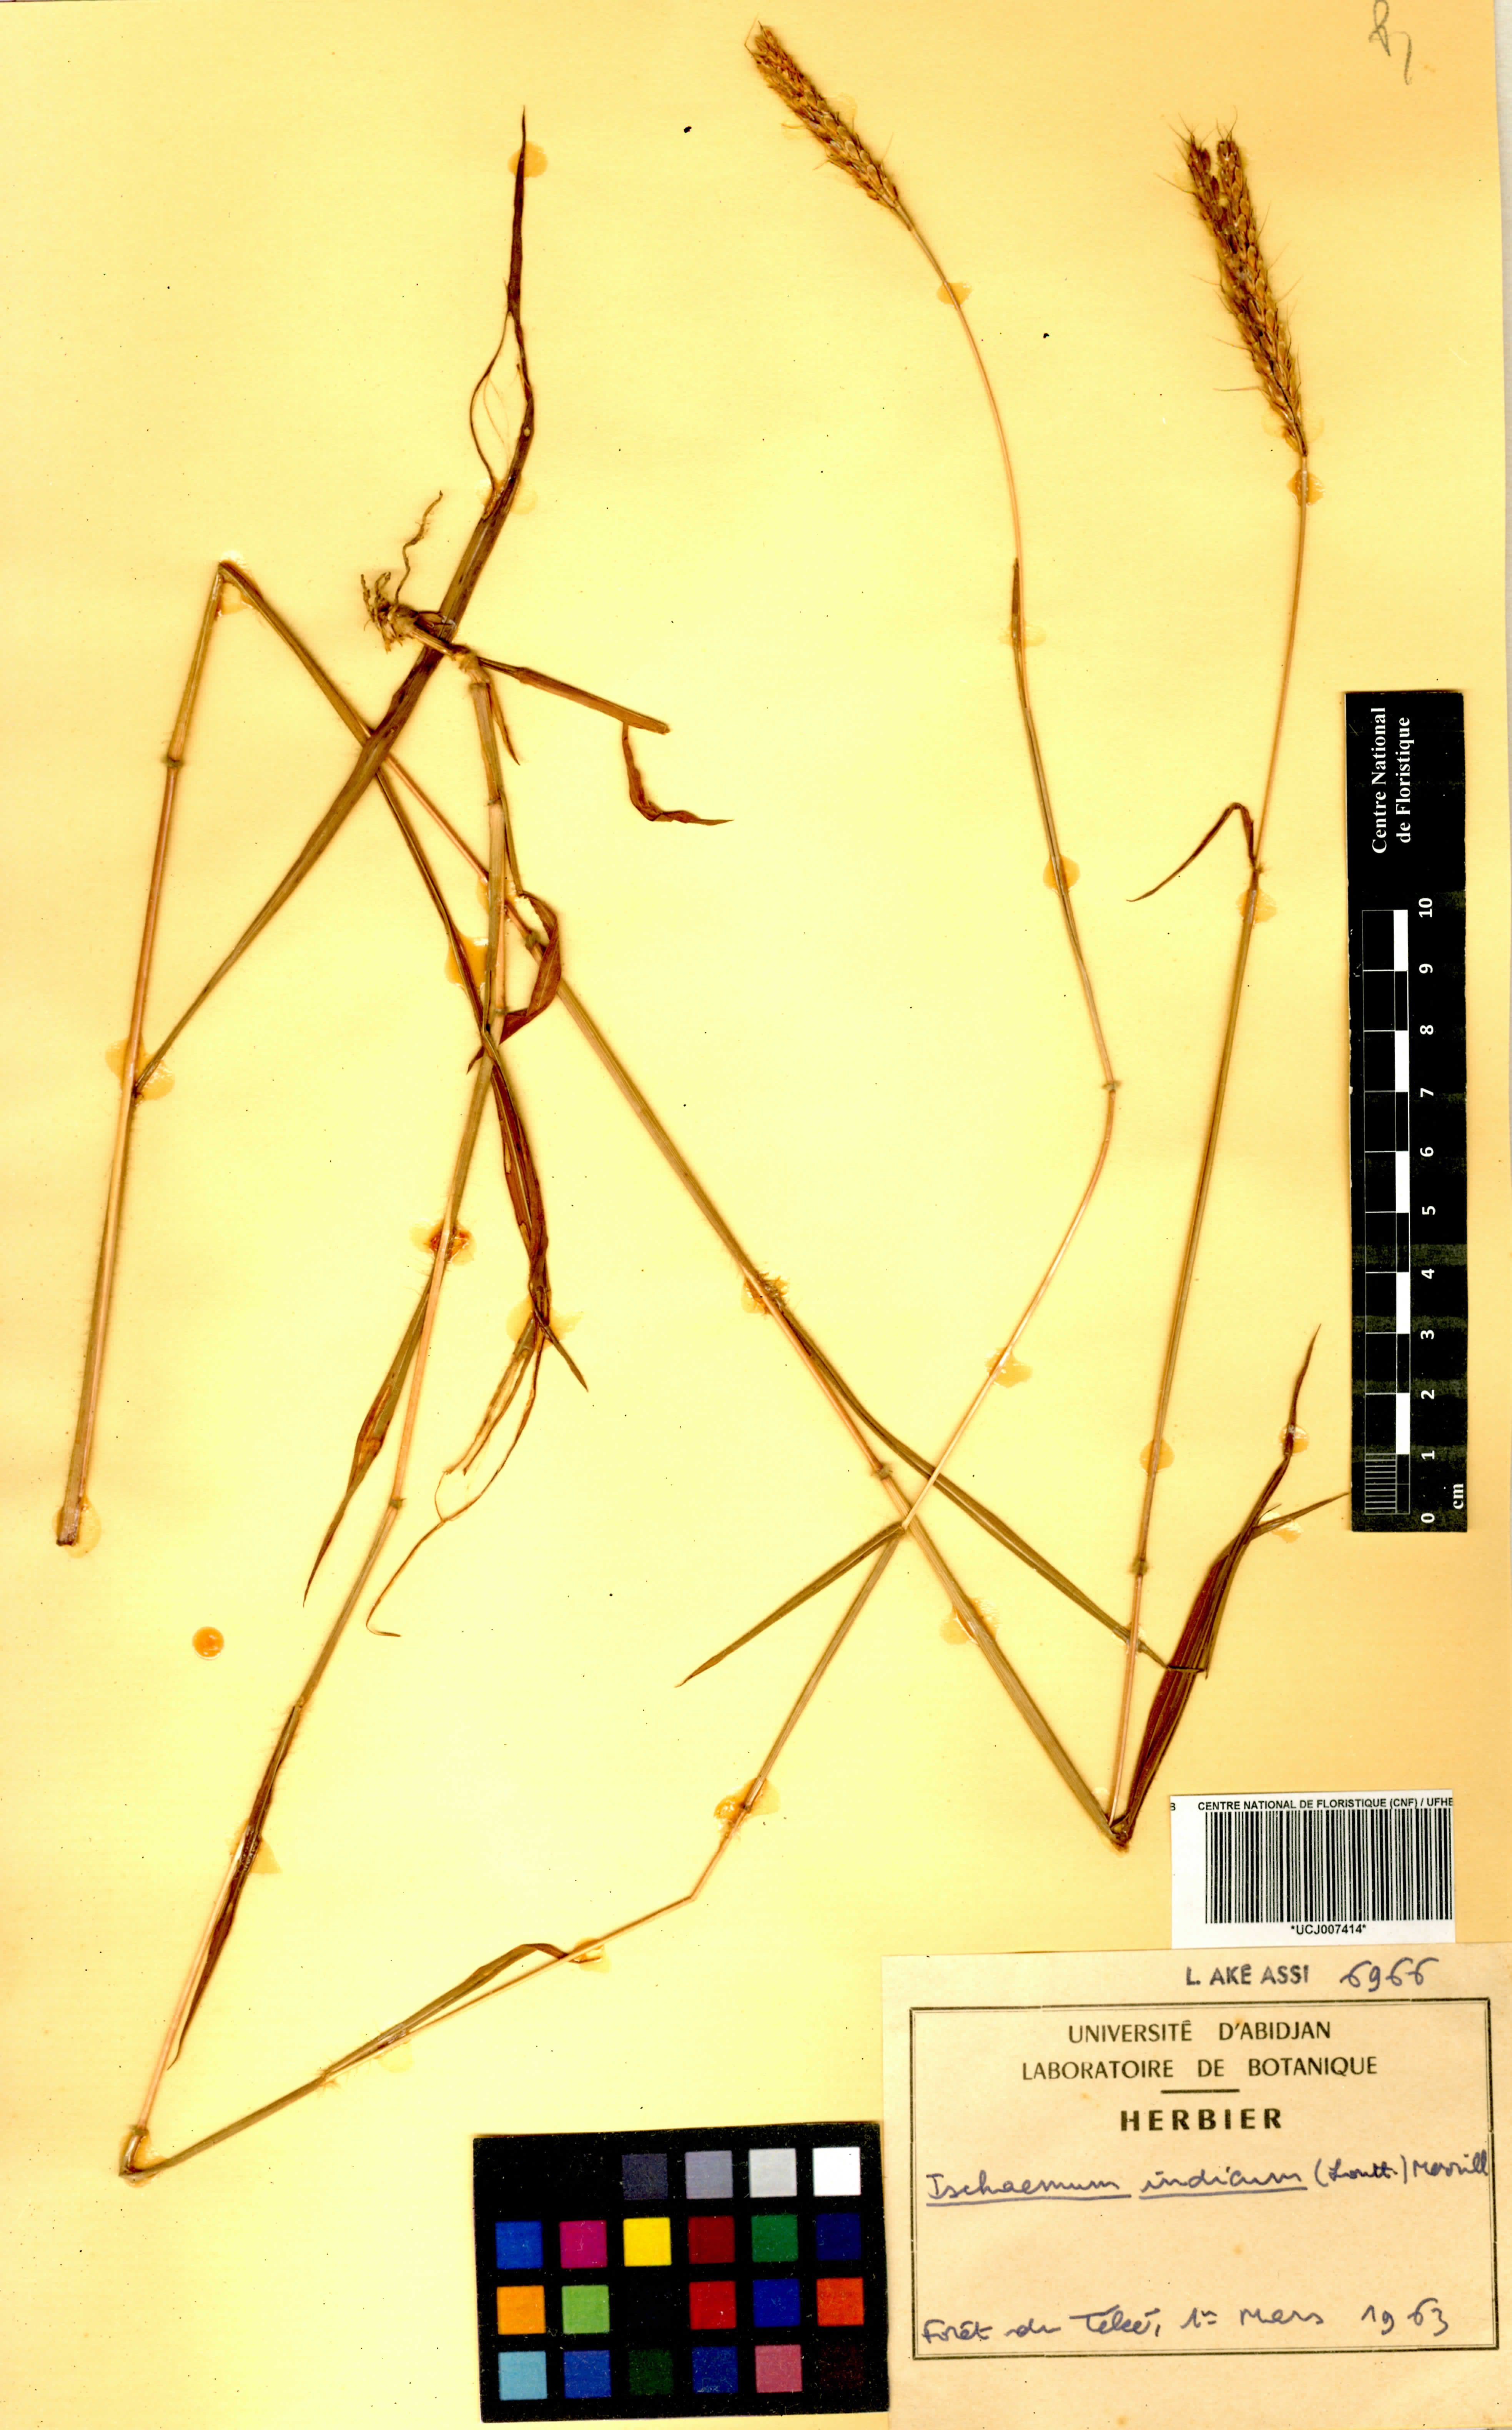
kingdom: Plantae
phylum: Tracheophyta
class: Liliopsida
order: Poales
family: Poaceae
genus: Polytrias
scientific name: Polytrias indica
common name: Indian murainagrass
